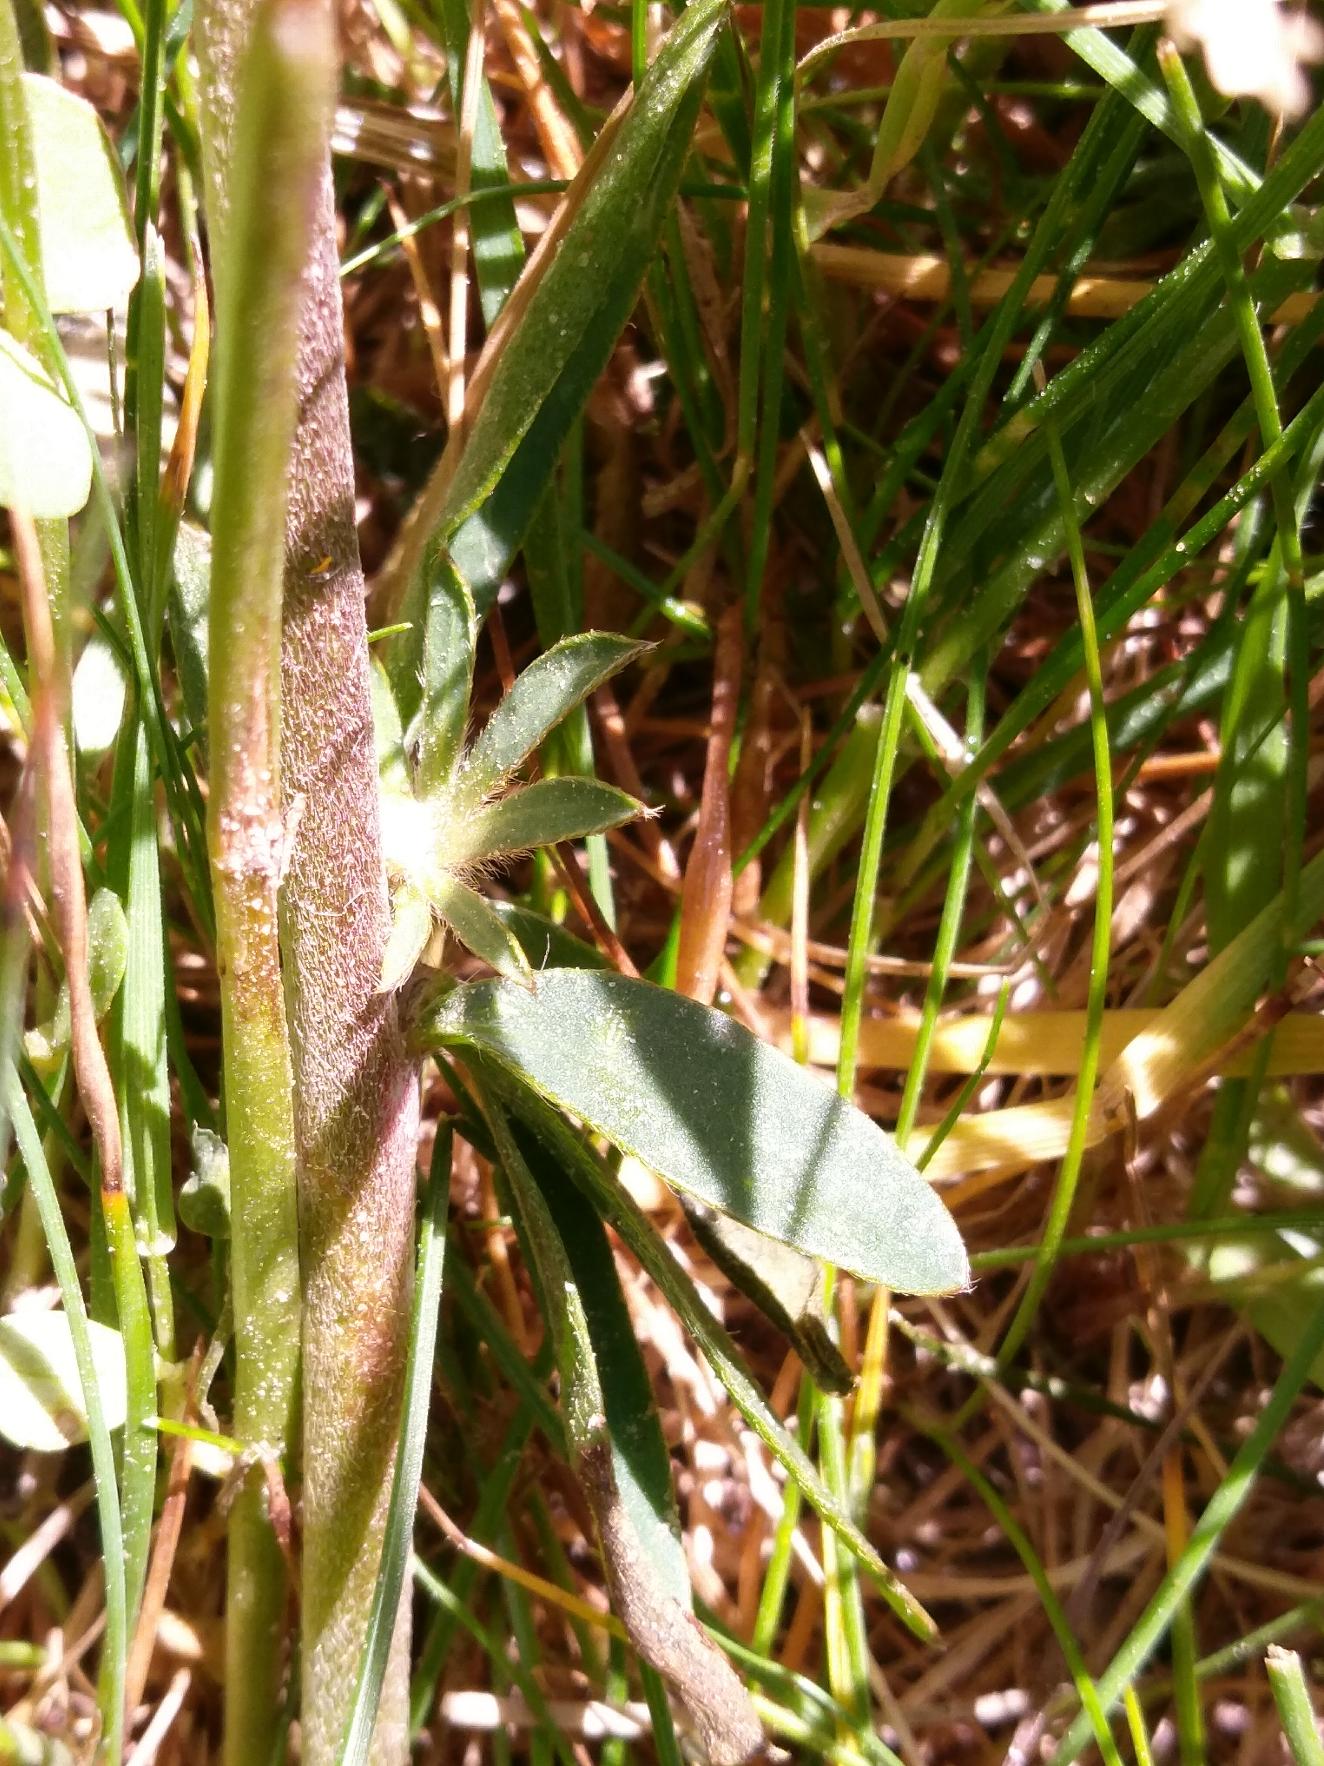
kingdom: Plantae
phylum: Tracheophyta
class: Magnoliopsida
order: Fabales
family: Fabaceae
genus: Anthyllis
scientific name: Anthyllis vulneraria
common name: Rundbælg
